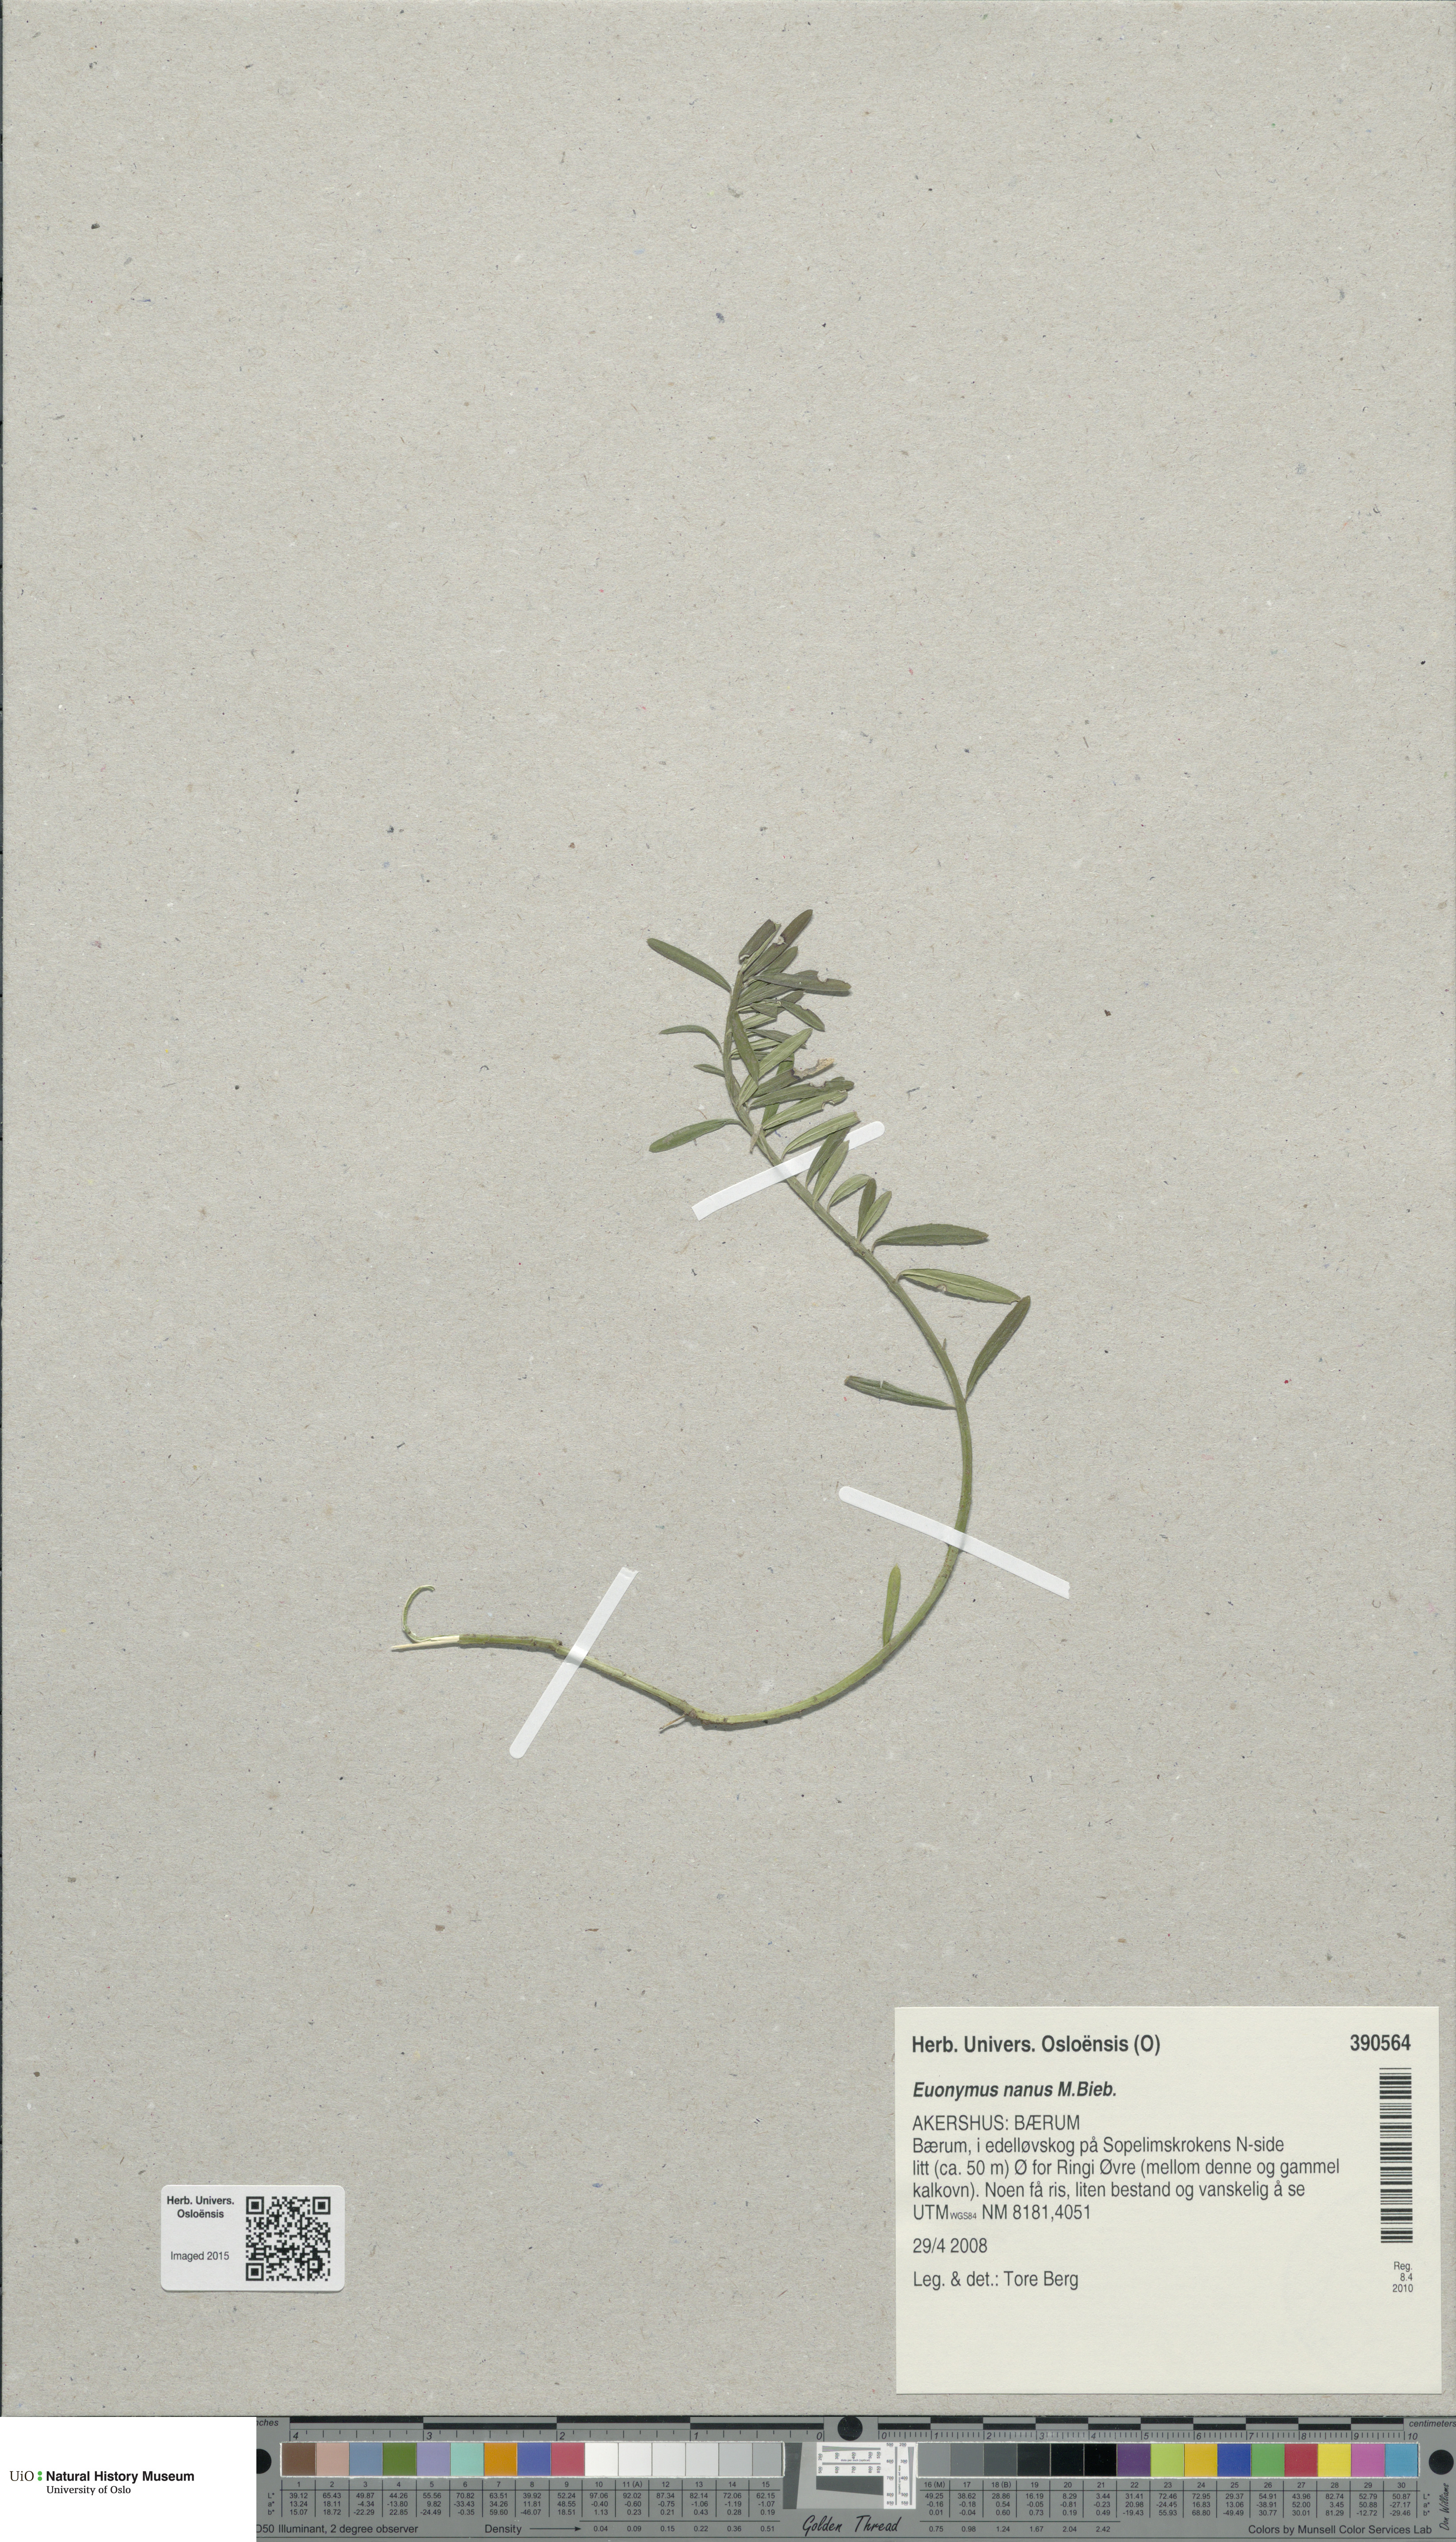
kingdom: Plantae
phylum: Tracheophyta
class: Magnoliopsida
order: Celastrales
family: Celastraceae
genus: Euonymus
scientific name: Euonymus nanus
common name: Dwarf spindle
